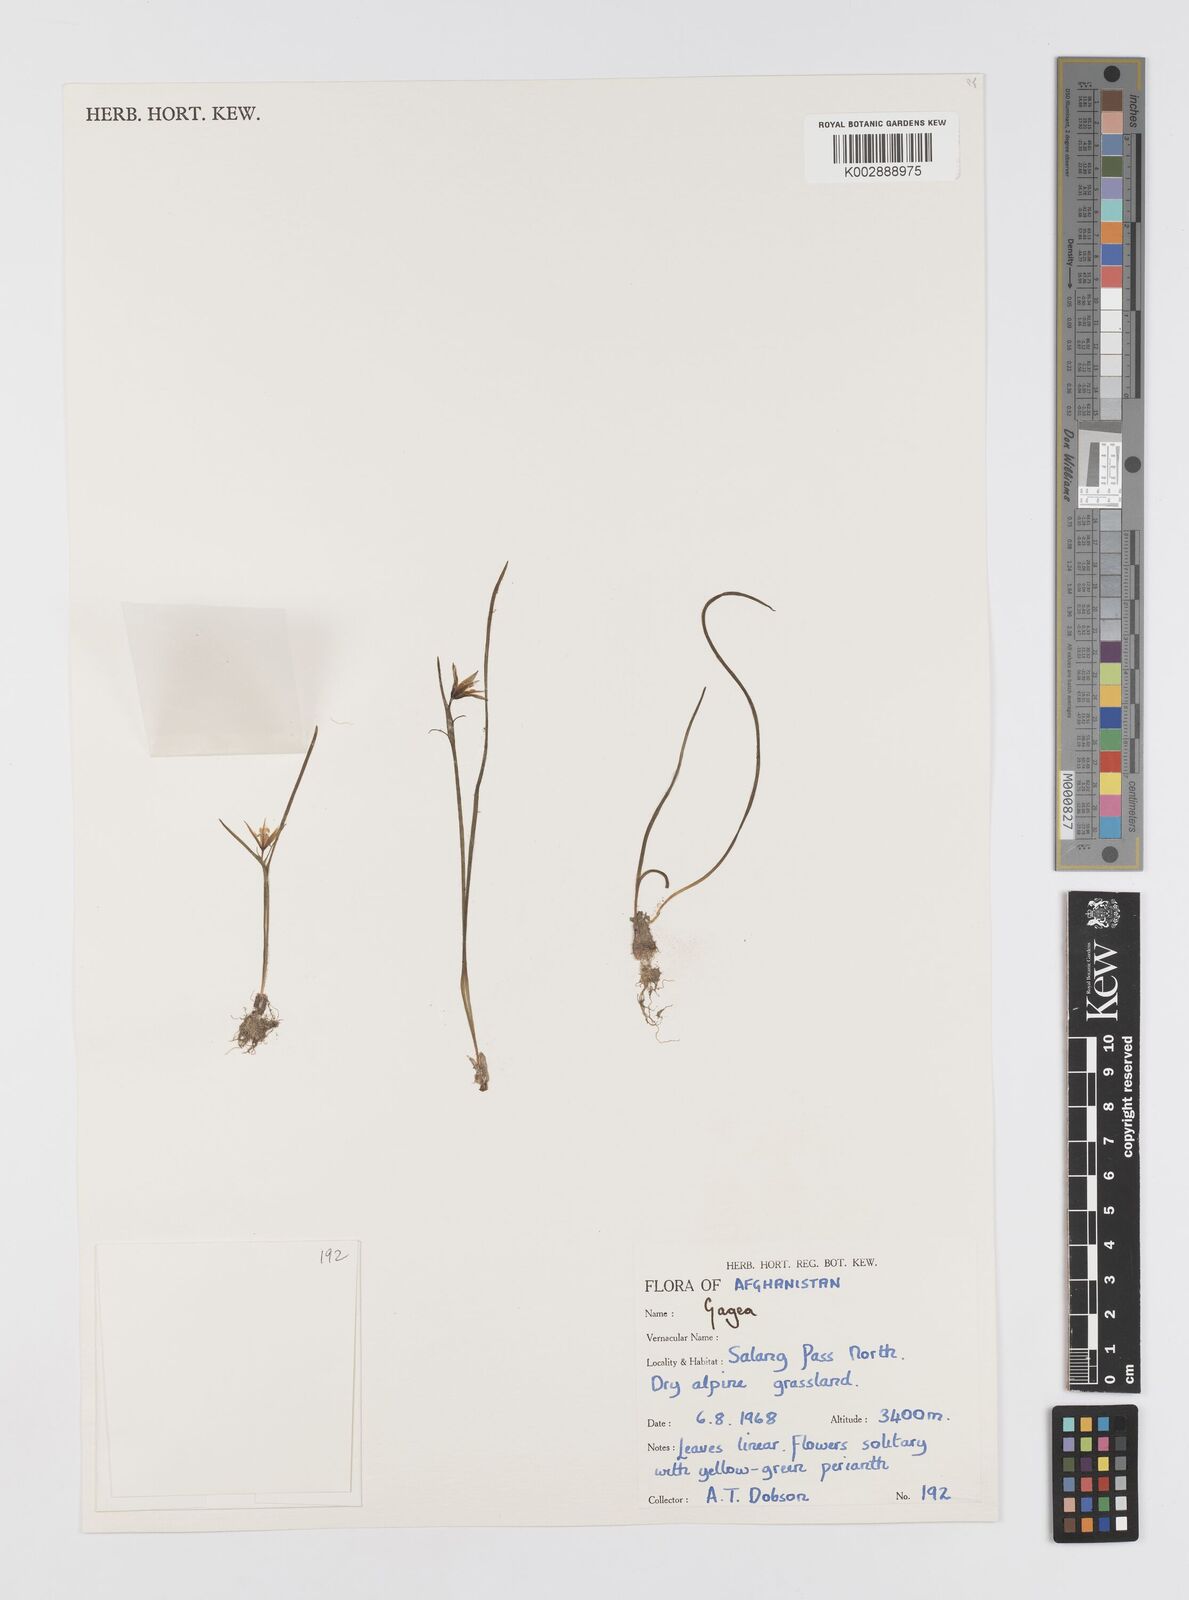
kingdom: Plantae
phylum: Tracheophyta
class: Liliopsida
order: Liliales
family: Liliaceae
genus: Gagea
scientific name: Gagea
